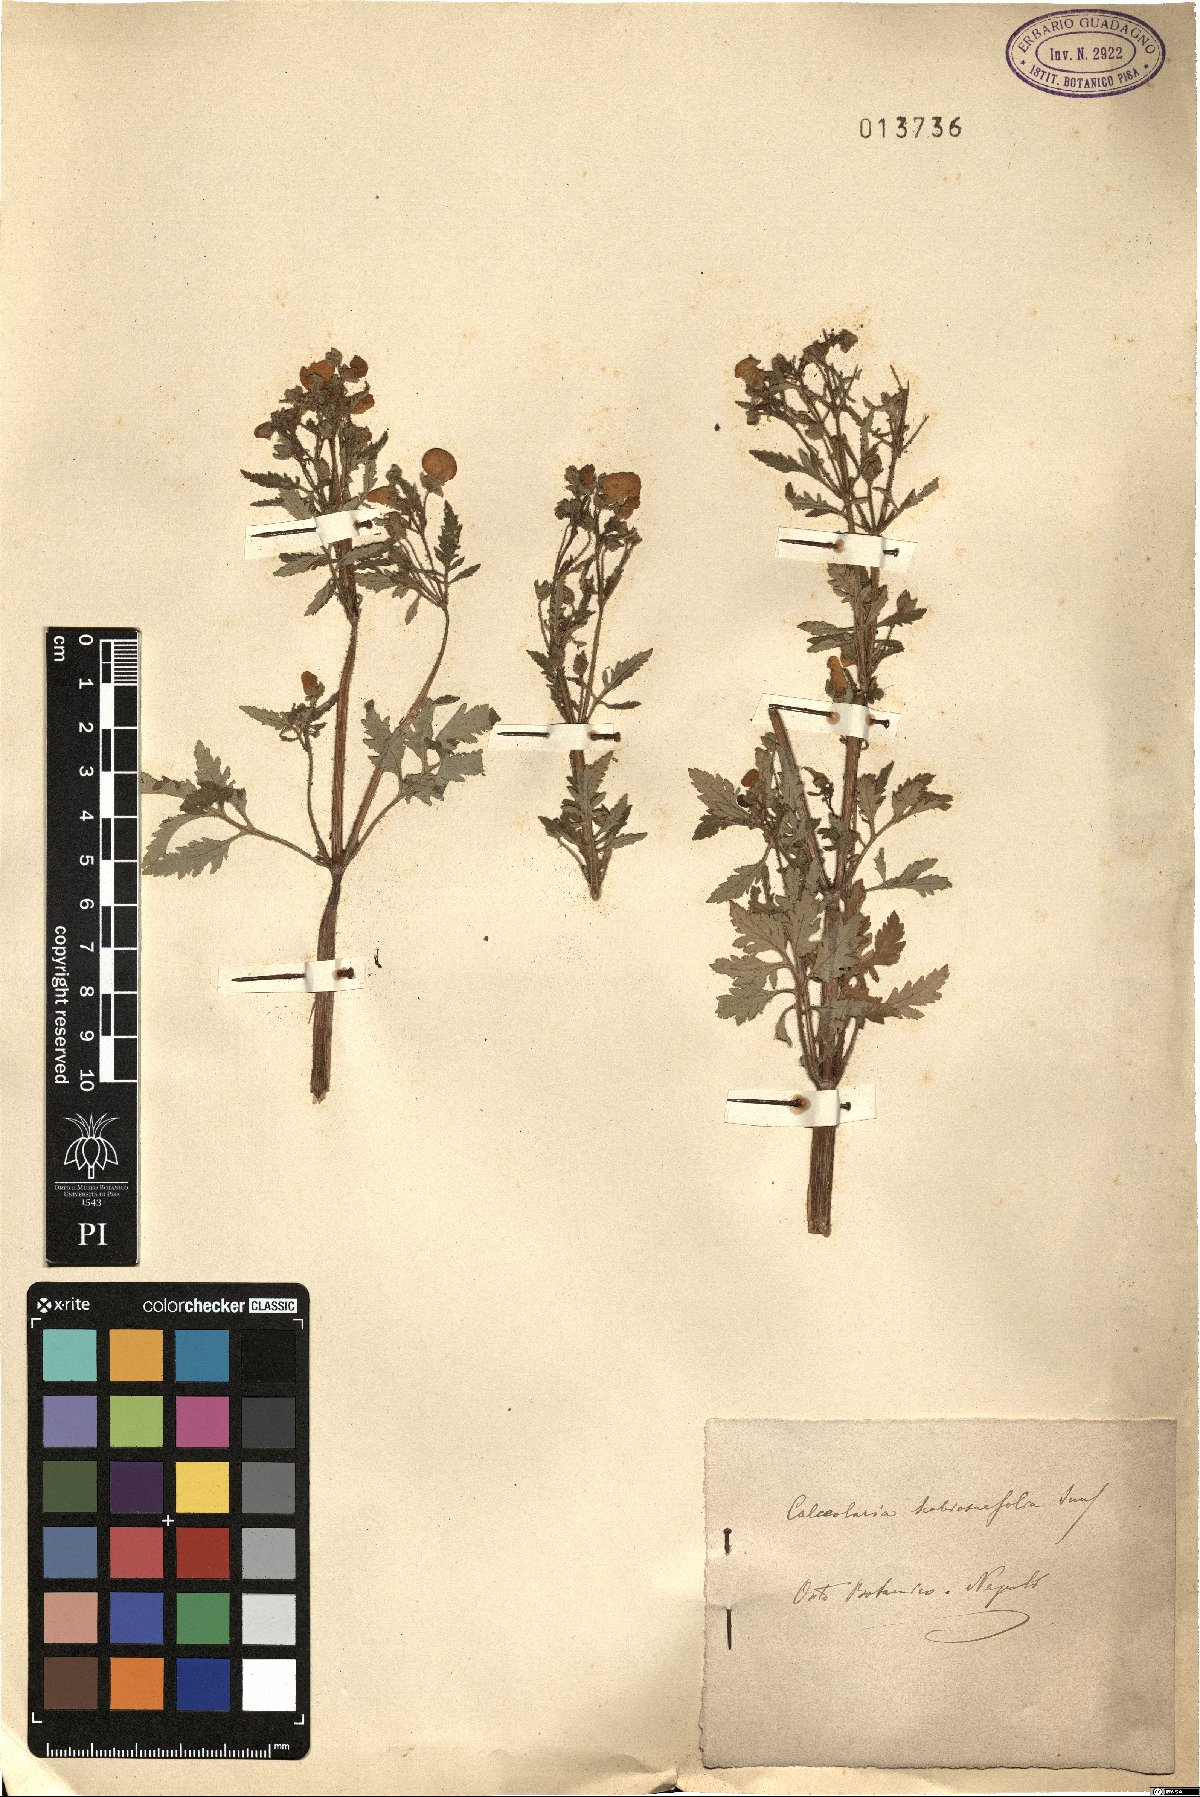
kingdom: Plantae
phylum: Tracheophyta
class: Magnoliopsida
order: Lamiales
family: Calceolariaceae
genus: Calceolaria
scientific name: Calceolaria tripartita
